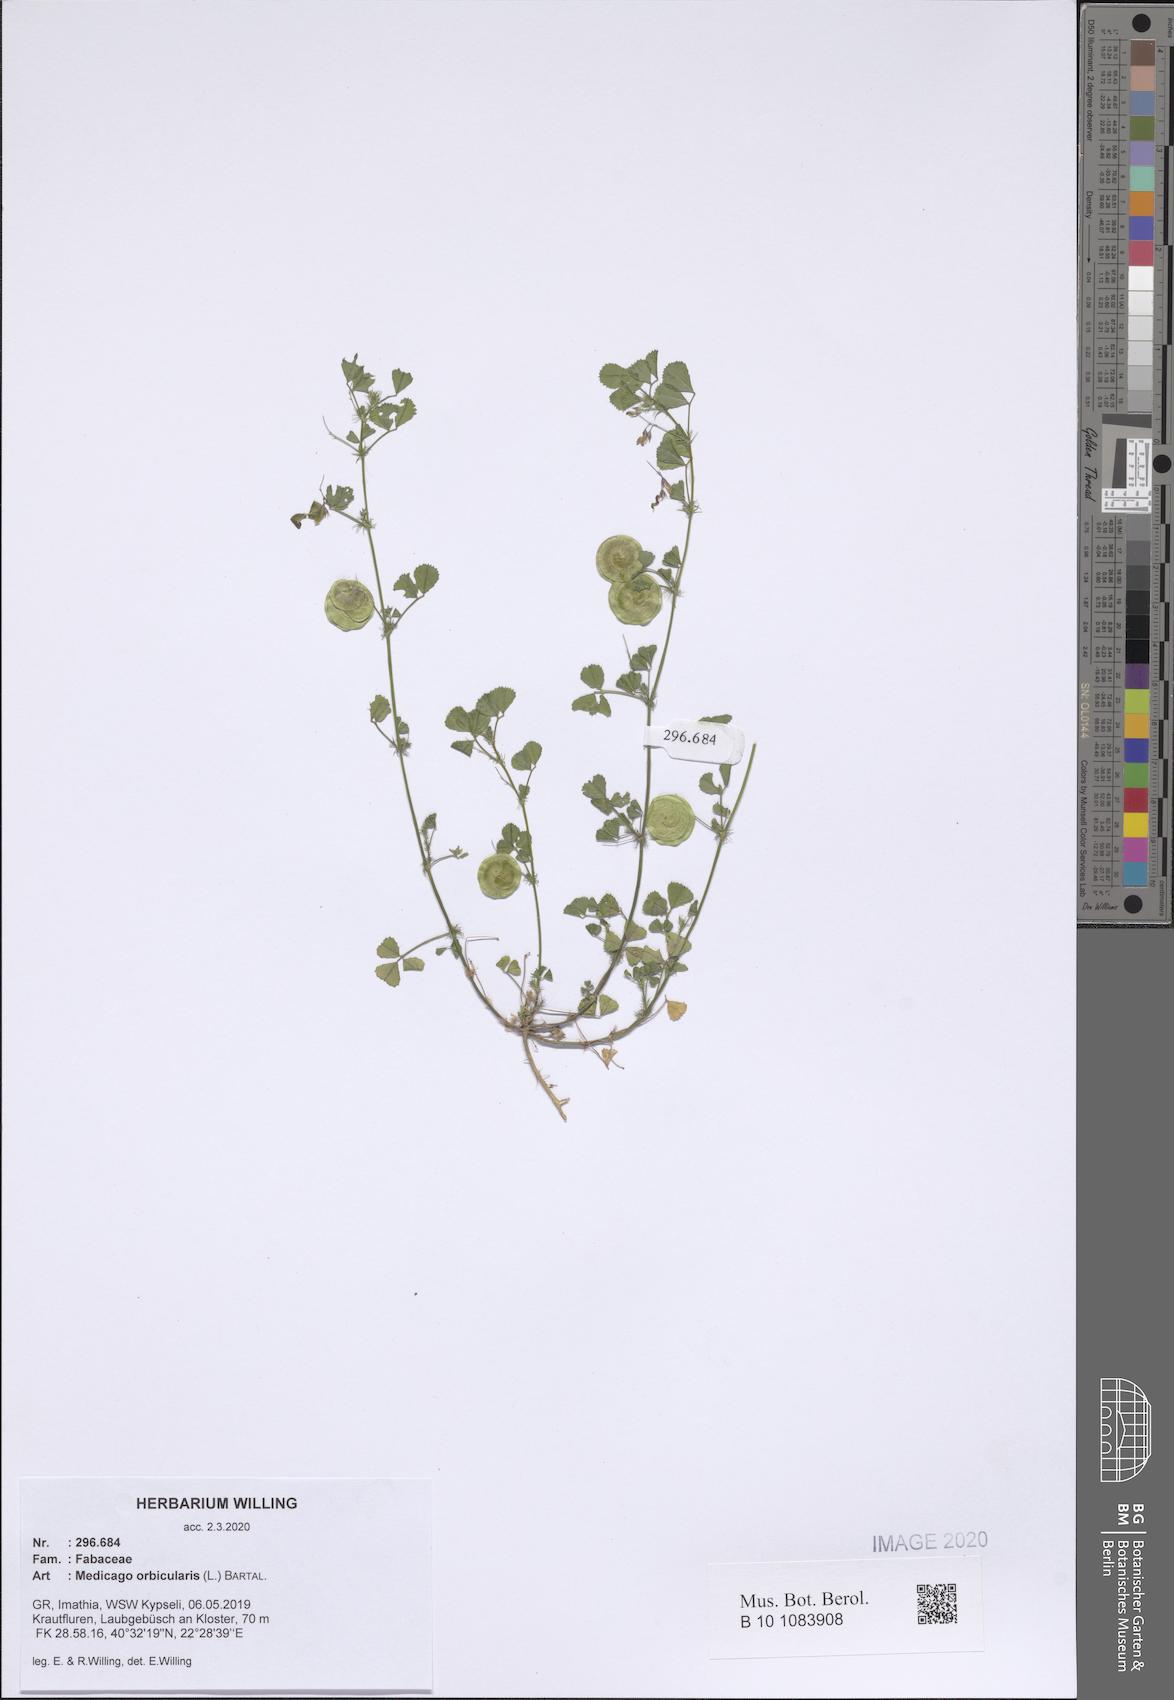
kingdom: Plantae
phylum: Tracheophyta
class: Magnoliopsida
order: Fabales
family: Fabaceae
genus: Medicago
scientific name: Medicago orbicularis
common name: Button medick
